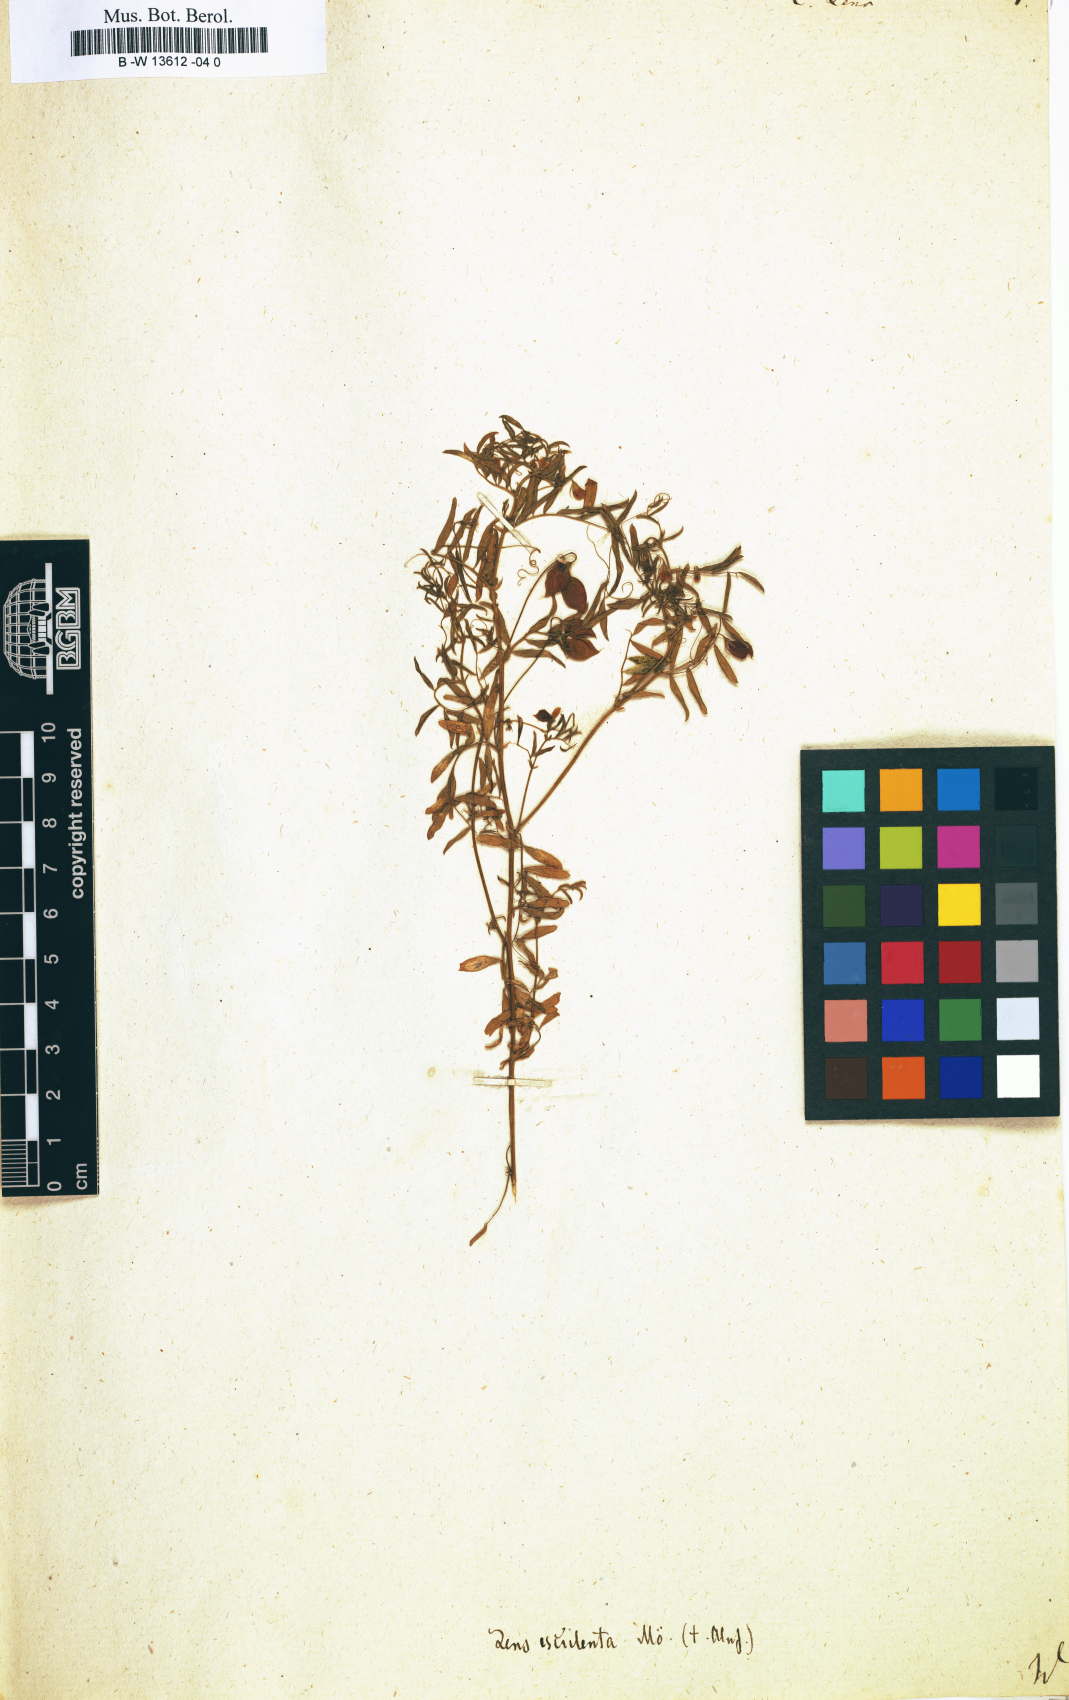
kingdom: Plantae
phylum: Tracheophyta
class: Magnoliopsida
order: Fabales
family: Fabaceae
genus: Vicia
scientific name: Vicia lens
